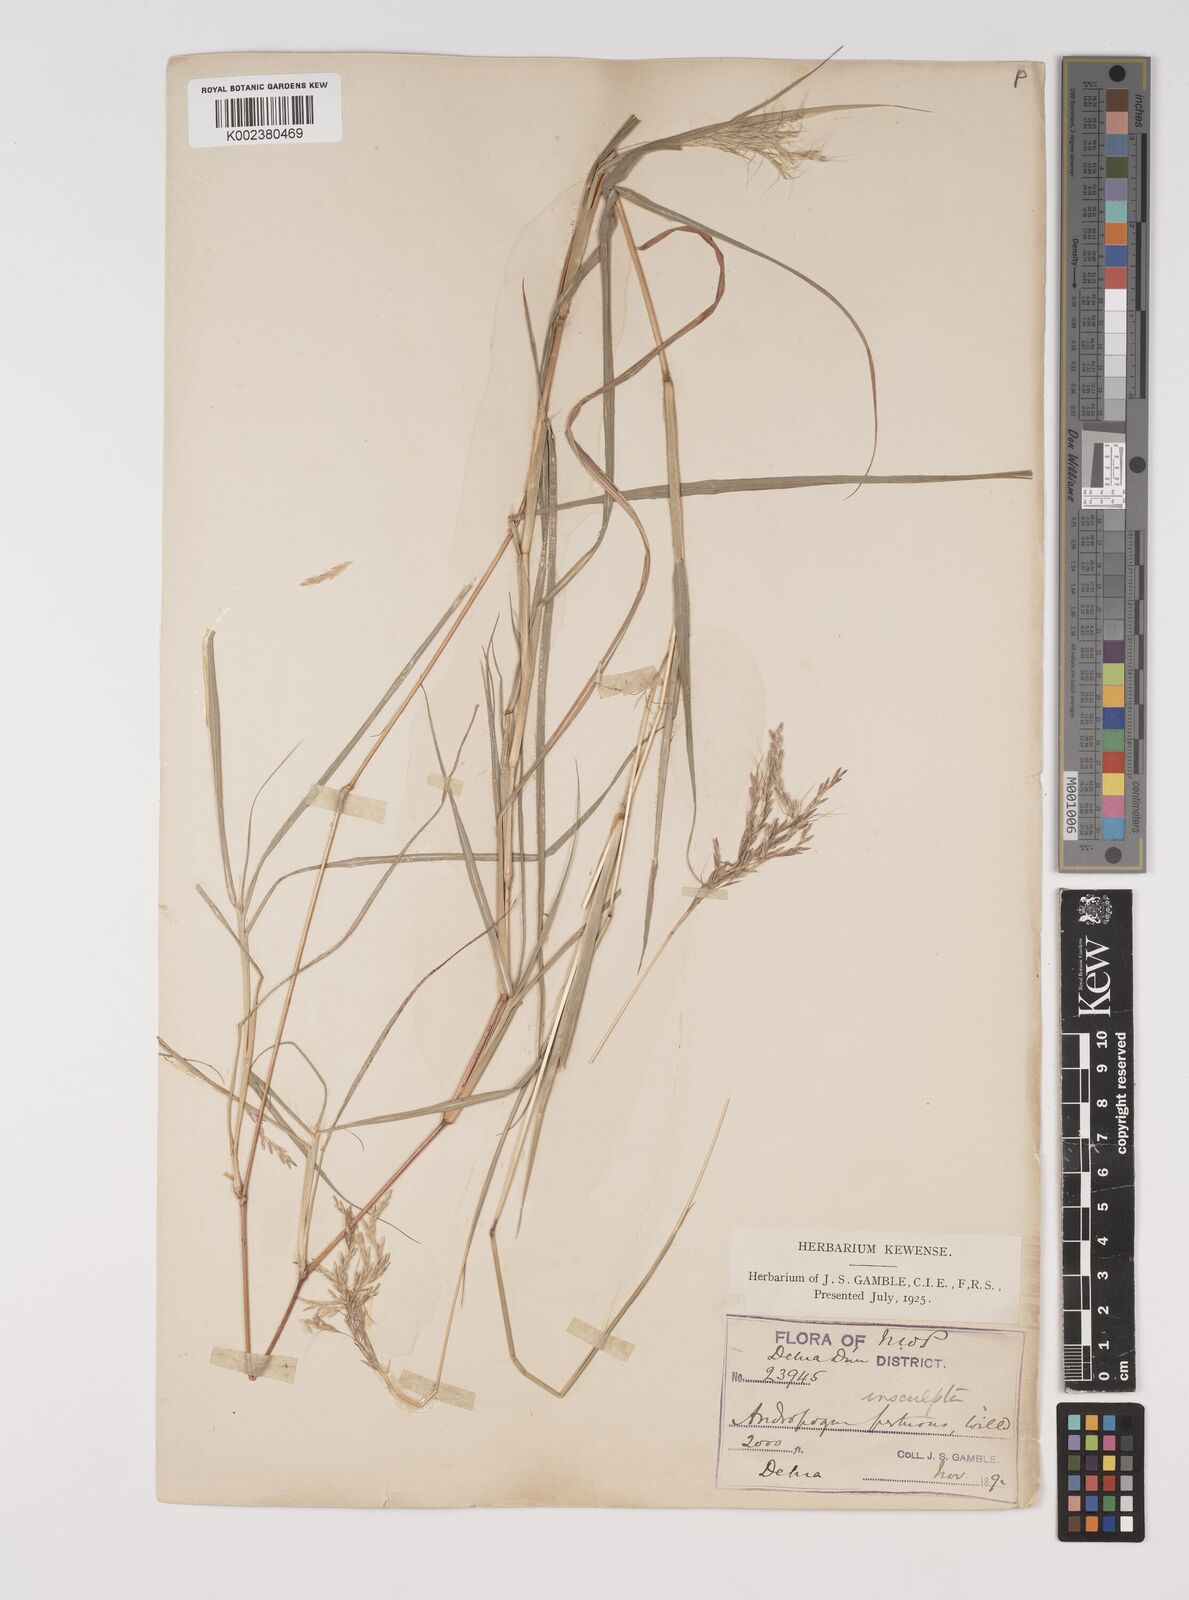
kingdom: Plantae
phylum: Tracheophyta
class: Liliopsida
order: Poales
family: Poaceae
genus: Bothriochloa
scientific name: Bothriochloa insculpta
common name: Creeping-bluegrass
